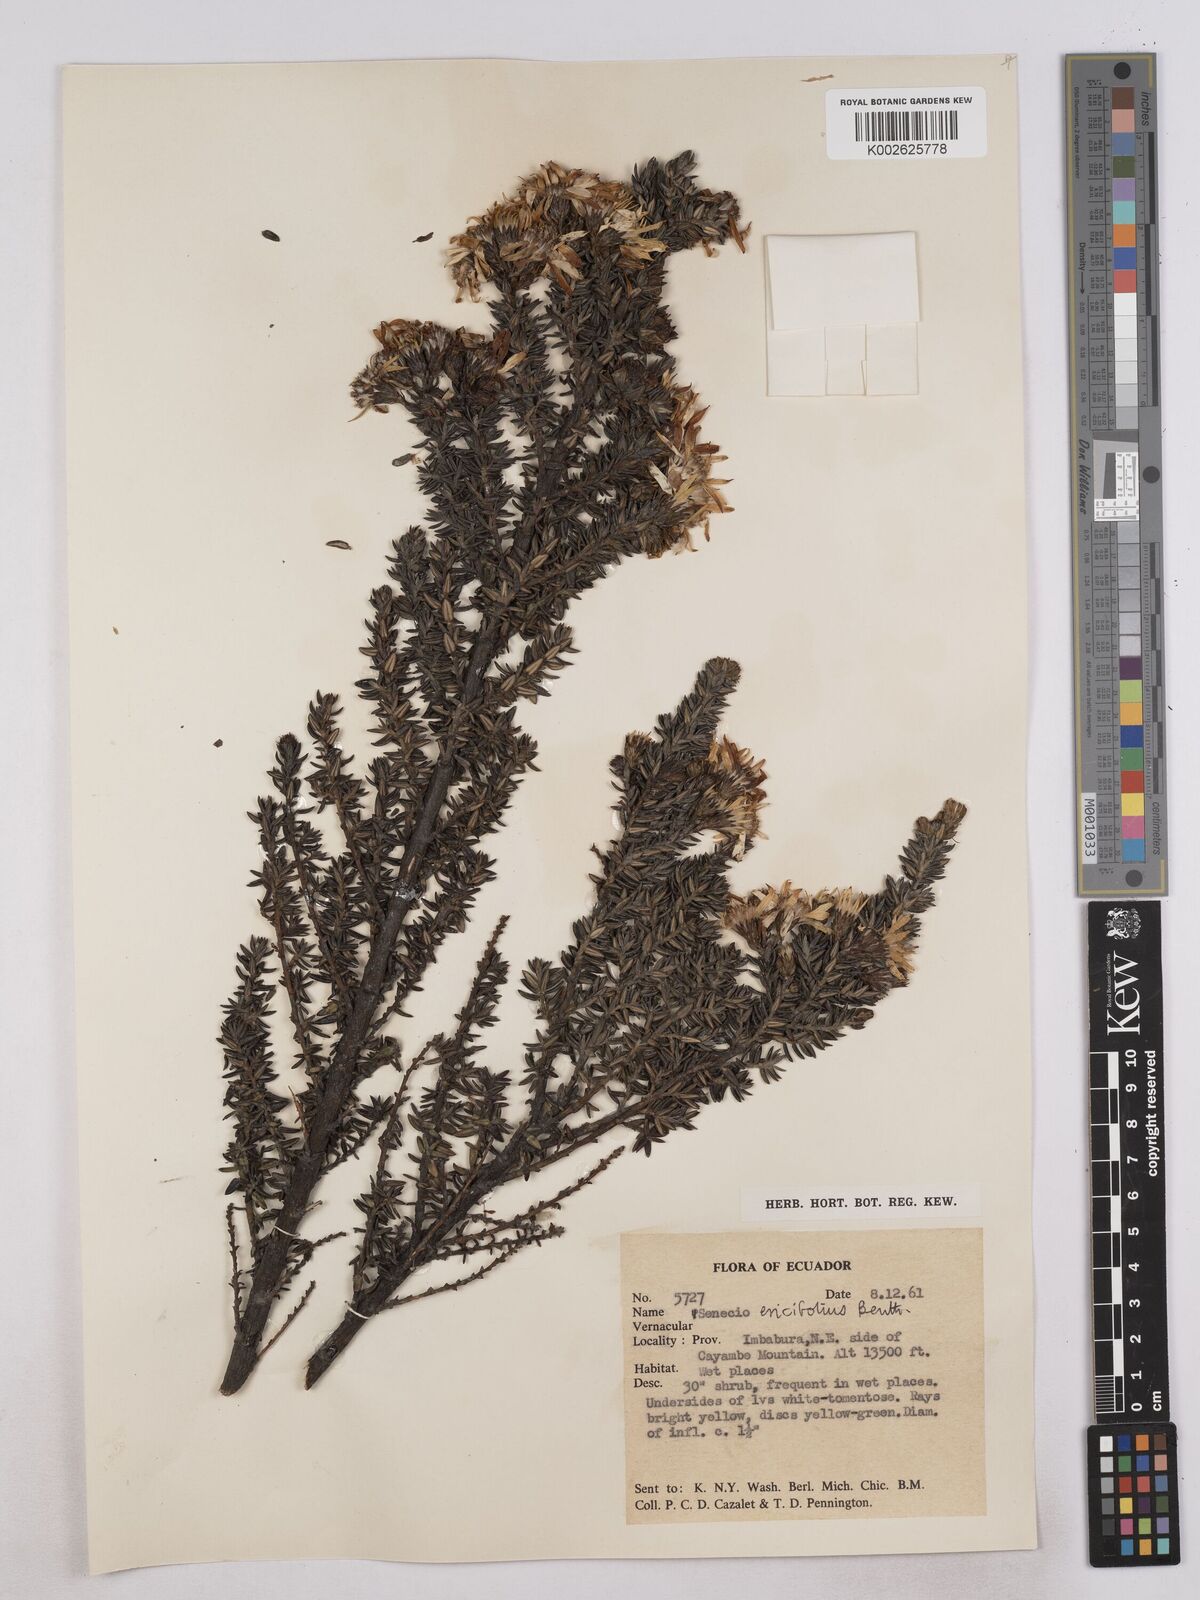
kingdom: Plantae
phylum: Tracheophyta
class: Magnoliopsida
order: Asterales
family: Asteraceae
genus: Monticalia
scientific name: Monticalia peruviana
